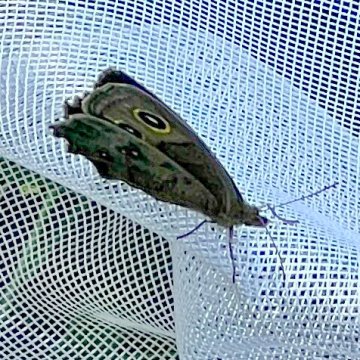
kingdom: Animalia
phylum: Arthropoda
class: Insecta
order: Lepidoptera
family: Nymphalidae
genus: Cercyonis
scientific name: Cercyonis pegala
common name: Common Wood-Nymph
